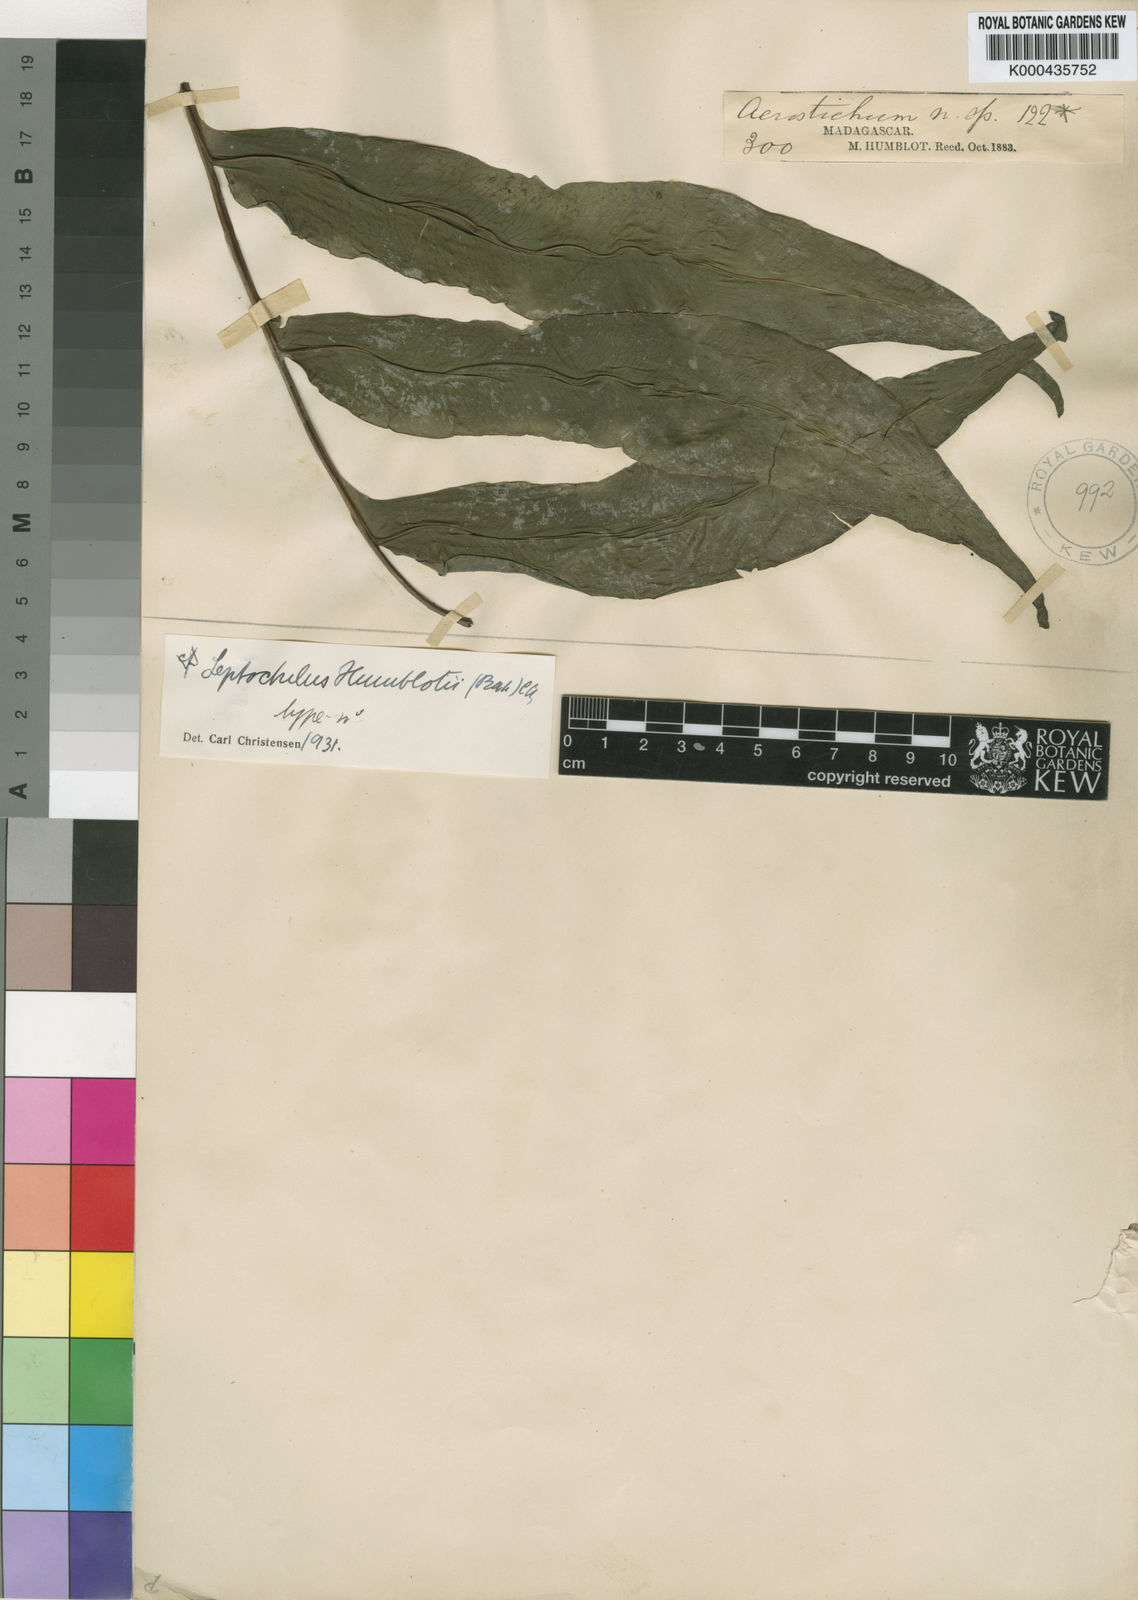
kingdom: Plantae
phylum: Tracheophyta
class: Polypodiopsida
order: Polypodiales
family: Dryopteridaceae
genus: Bolbitis
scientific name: Bolbitis humblotii
